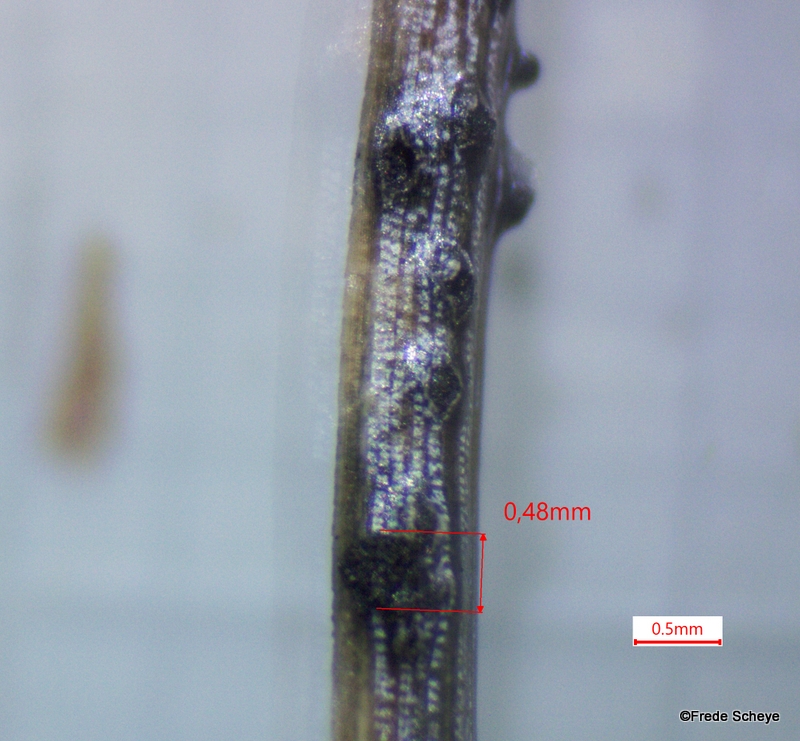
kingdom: Fungi
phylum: Ascomycota
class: Sordariomycetes
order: Amphisphaeriales
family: Pestalotiopsidaceae
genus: Pestalotiopsis
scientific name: Pestalotiopsis
